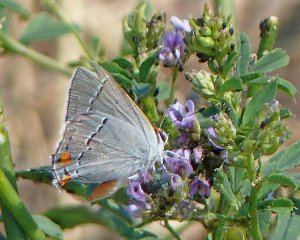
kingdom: Animalia
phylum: Arthropoda
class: Insecta
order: Lepidoptera
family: Lycaenidae
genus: Strymon
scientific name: Strymon melinus
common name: Gray Hairstreak
